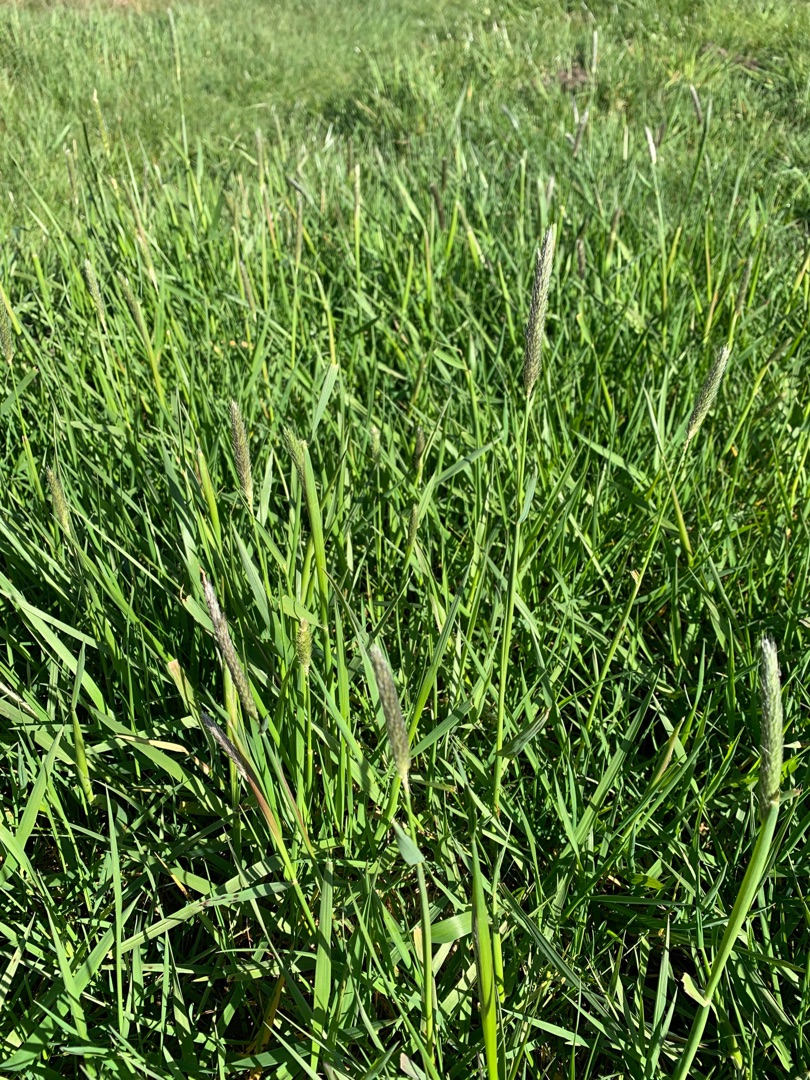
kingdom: Plantae
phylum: Tracheophyta
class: Liliopsida
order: Poales
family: Poaceae
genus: Alopecurus
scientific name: Alopecurus pratensis
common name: Eng-rævehale
